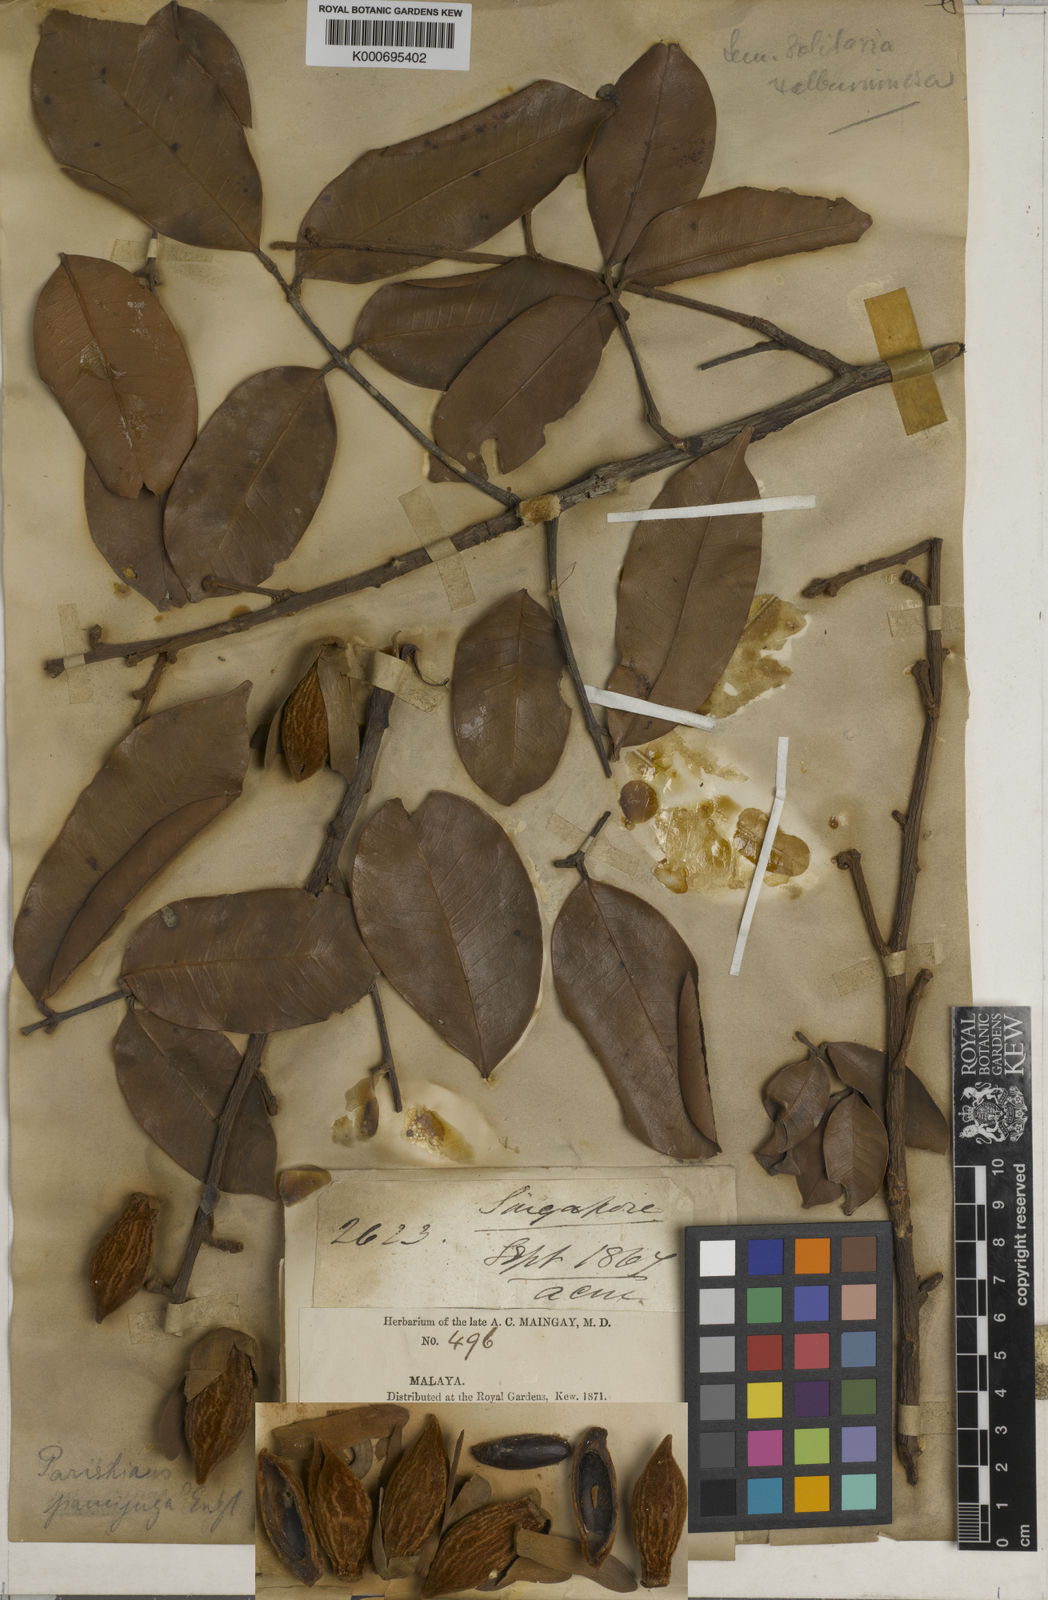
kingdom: Plantae
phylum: Tracheophyta
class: Magnoliopsida
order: Sapindales
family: Anacardiaceae
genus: Parishia
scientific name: Parishia paucijuga
